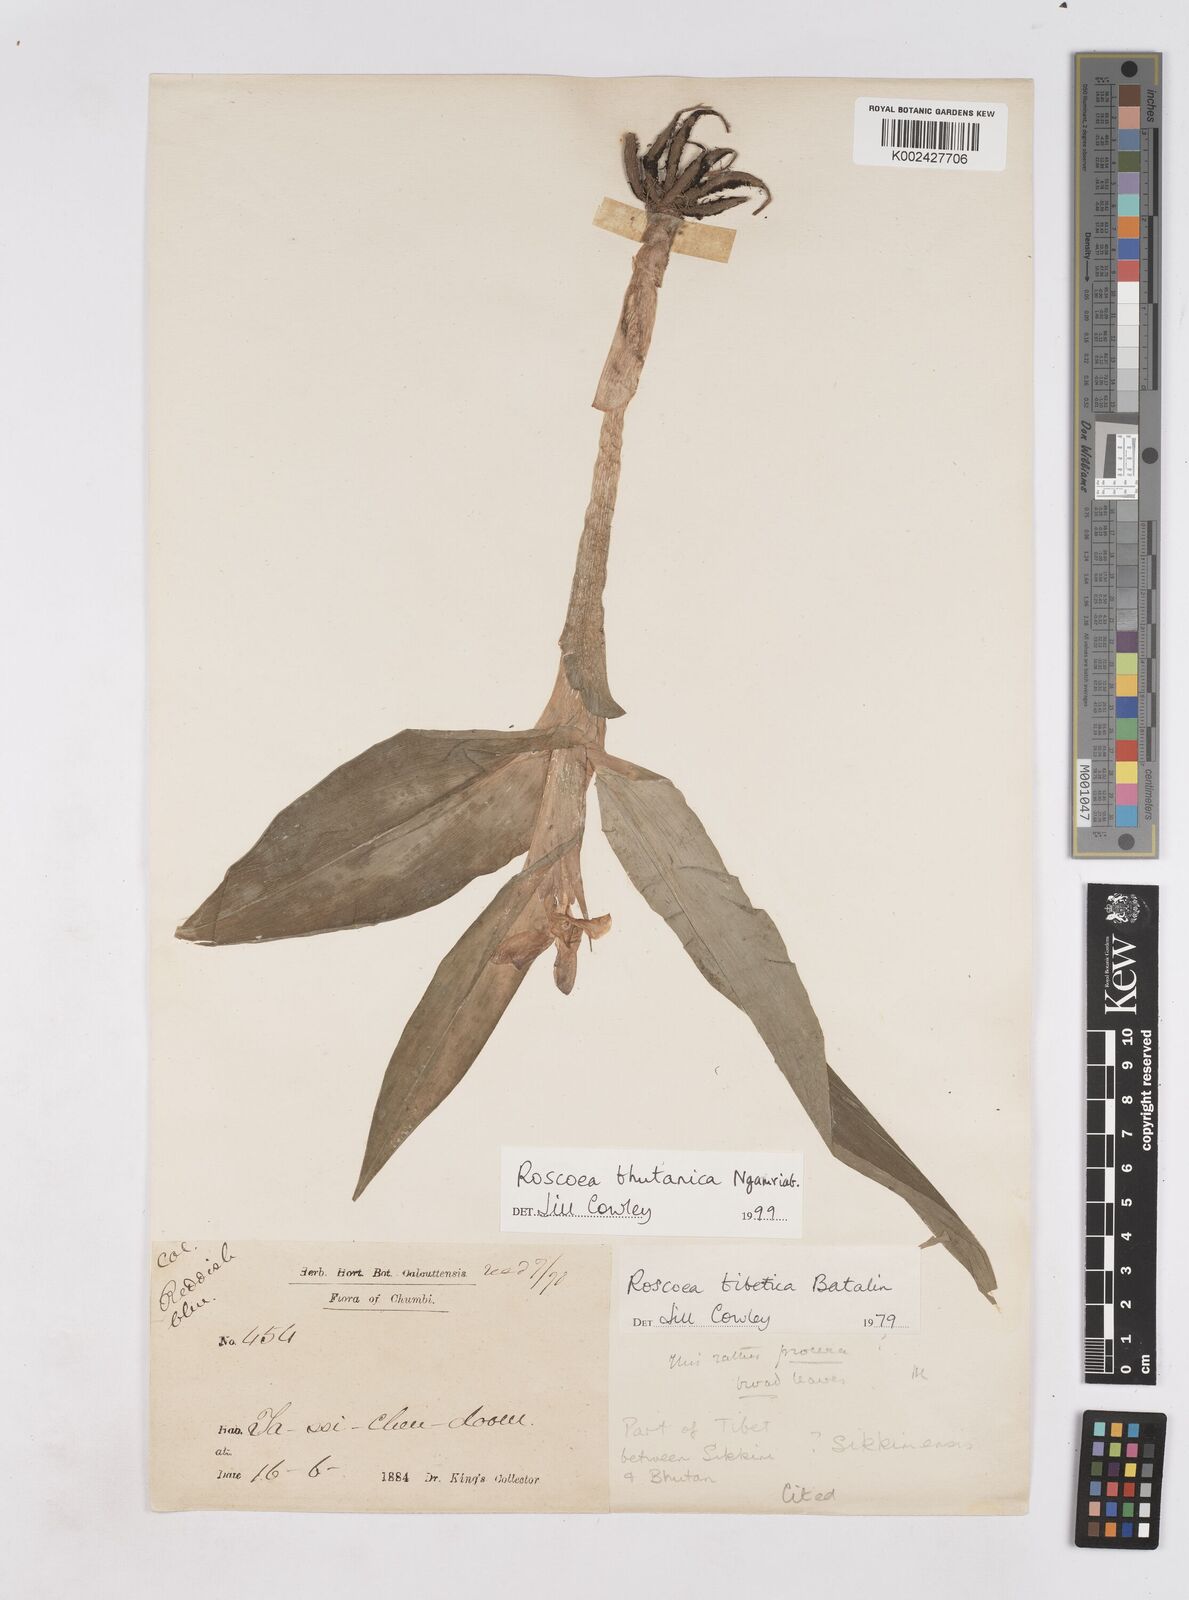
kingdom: Plantae
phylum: Tracheophyta
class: Liliopsida
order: Zingiberales
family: Zingiberaceae
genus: Roscoea
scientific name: Roscoea bhutanica
